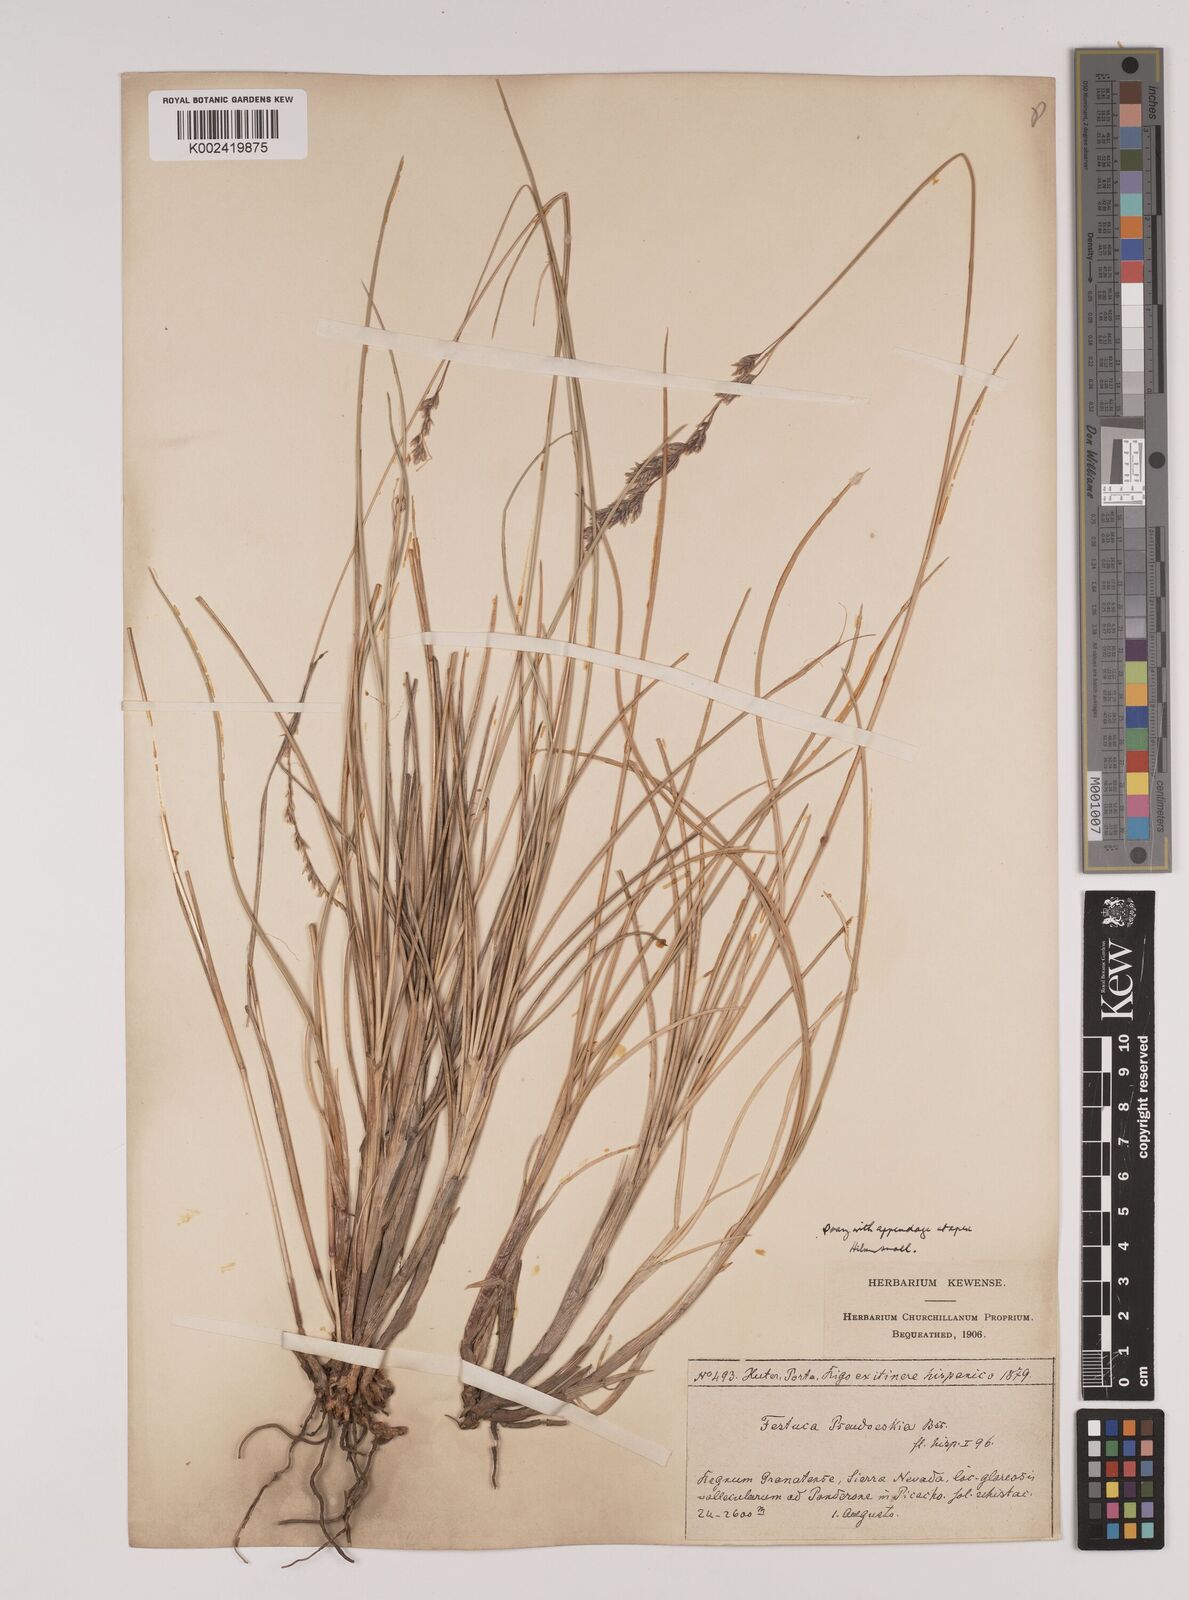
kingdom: Plantae
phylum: Tracheophyta
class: Liliopsida
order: Poales
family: Poaceae
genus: Festuca
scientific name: Festuca pseudeskia
